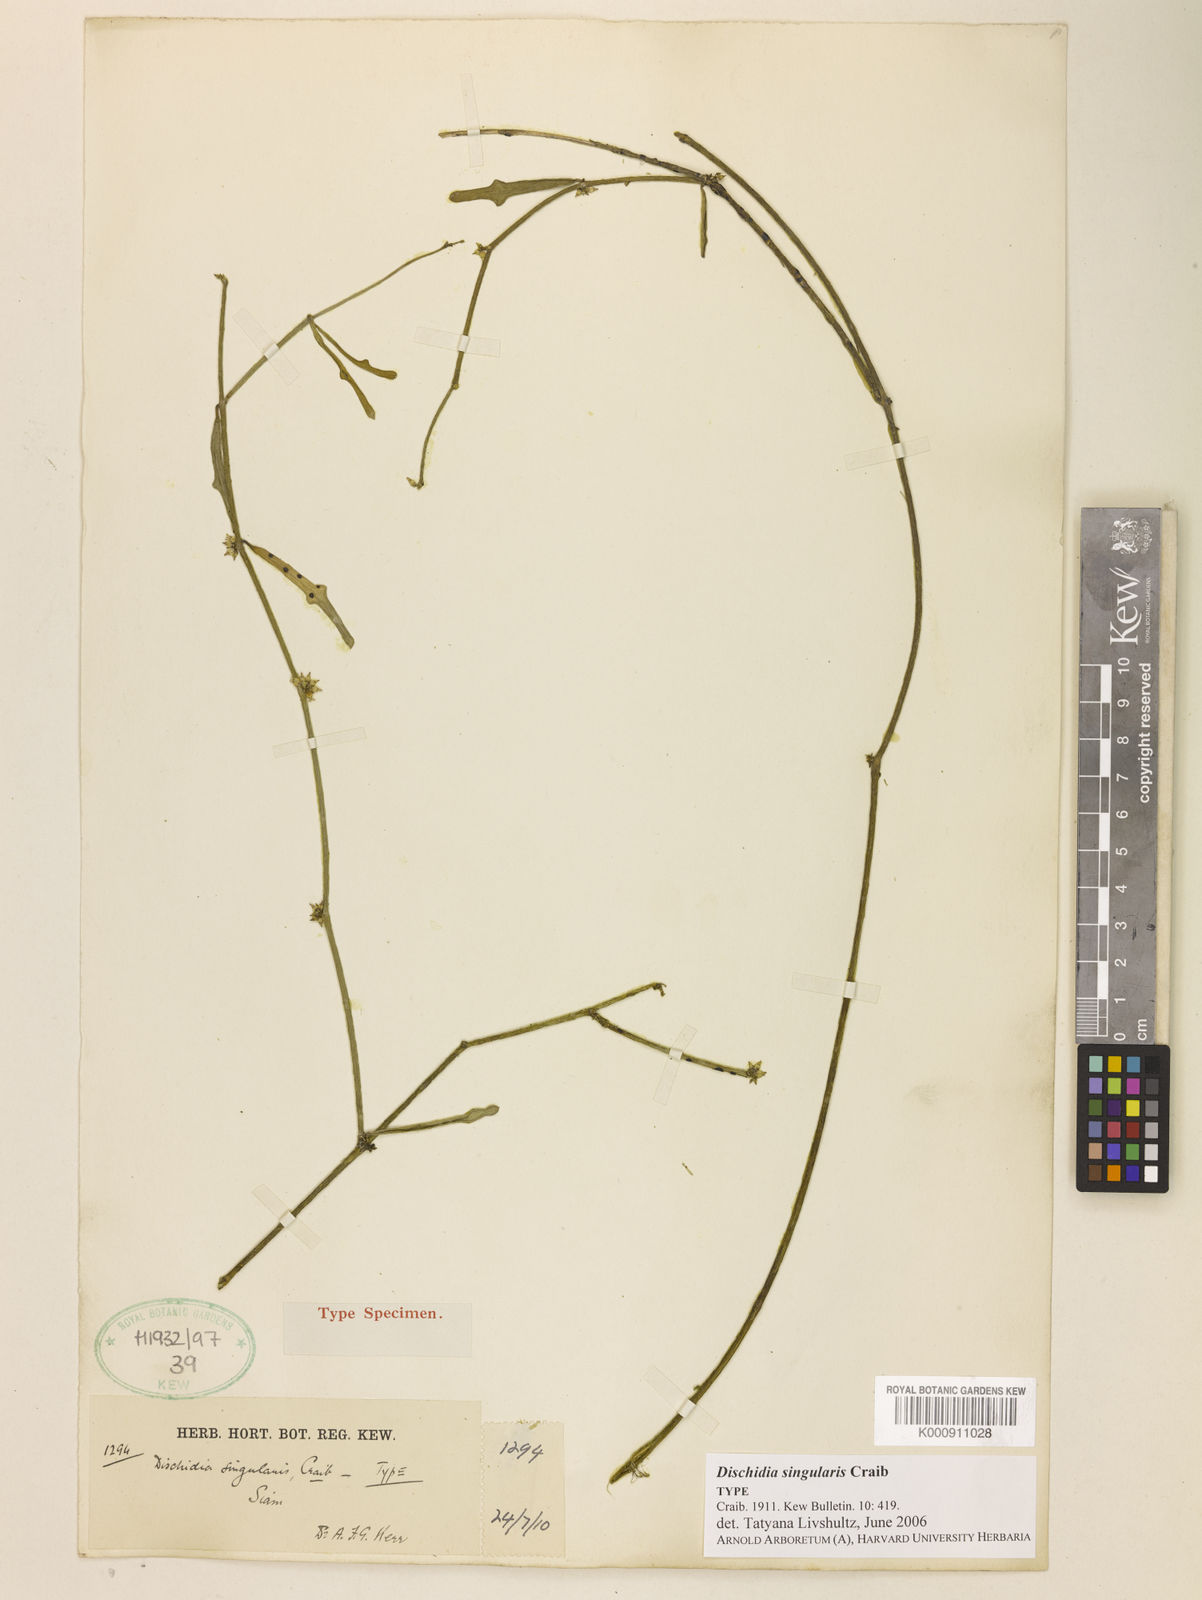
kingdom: Plantae
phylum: Tracheophyta
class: Magnoliopsida
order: Gentianales
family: Apocynaceae
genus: Dischidia
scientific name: Dischidia singularis
